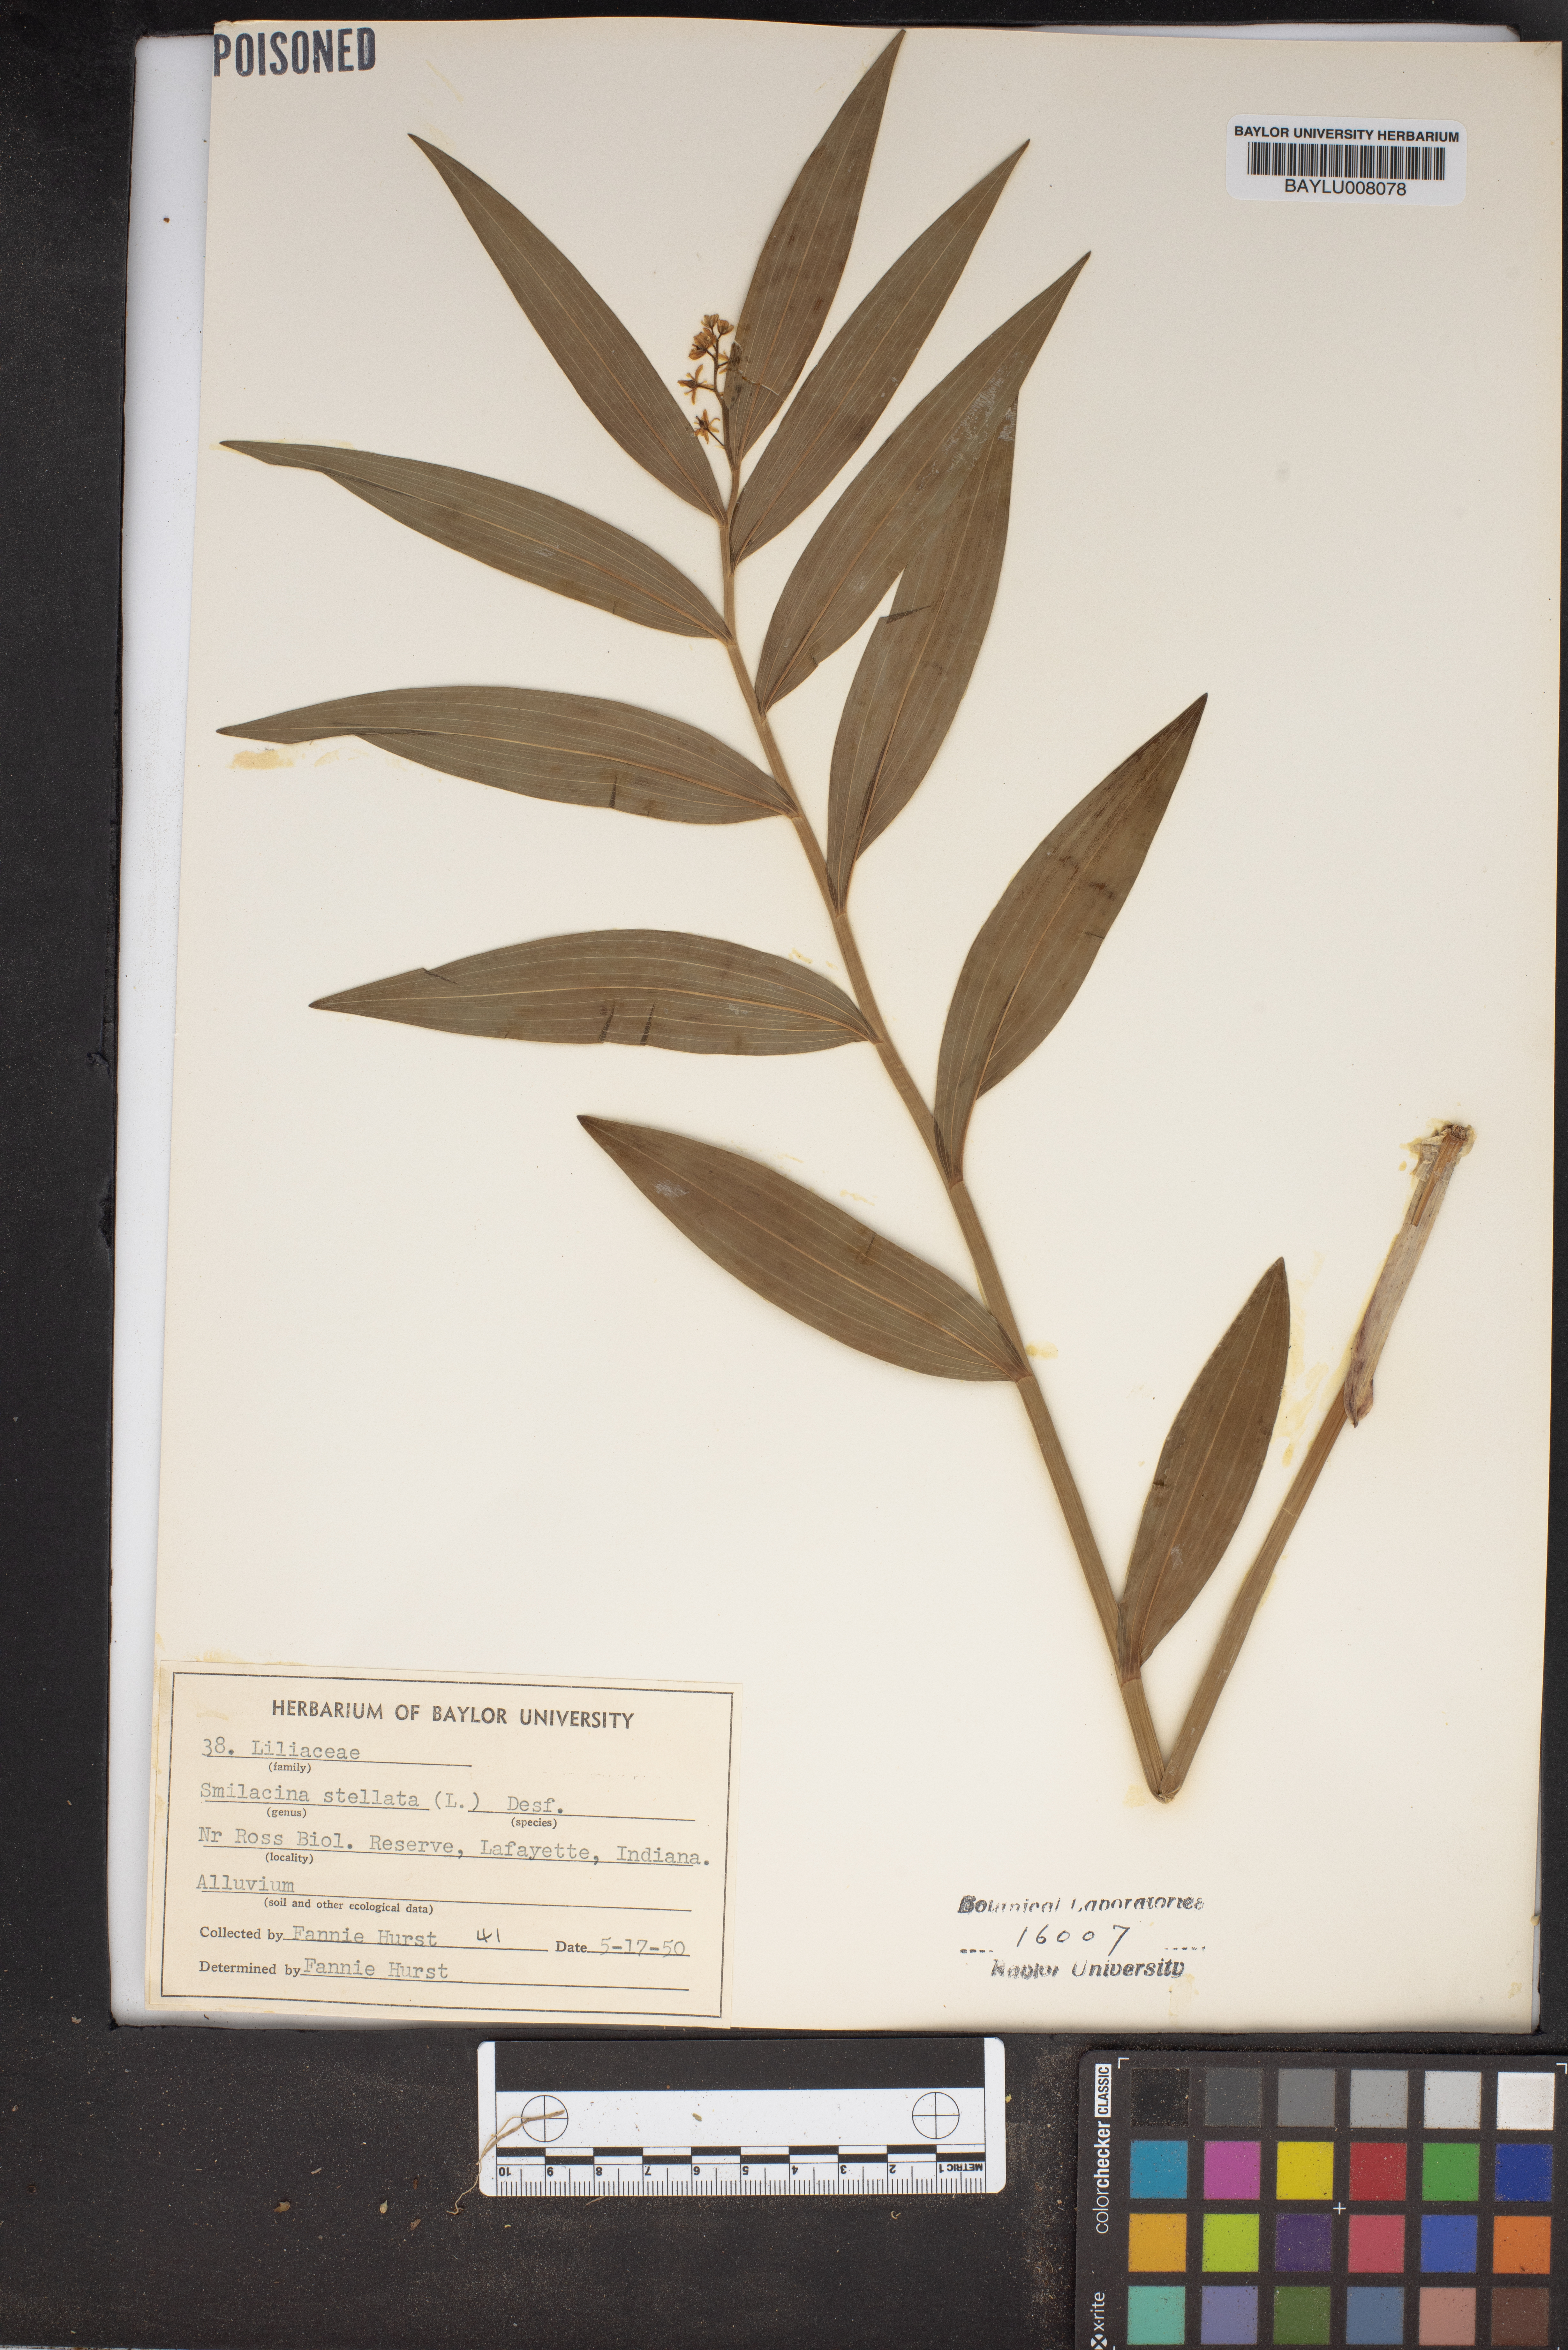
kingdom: Plantae
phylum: Tracheophyta
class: Liliopsida
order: Asparagales
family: Asparagaceae
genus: Maianthemum
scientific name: Maianthemum stellatum
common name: Little false solomon's seal
